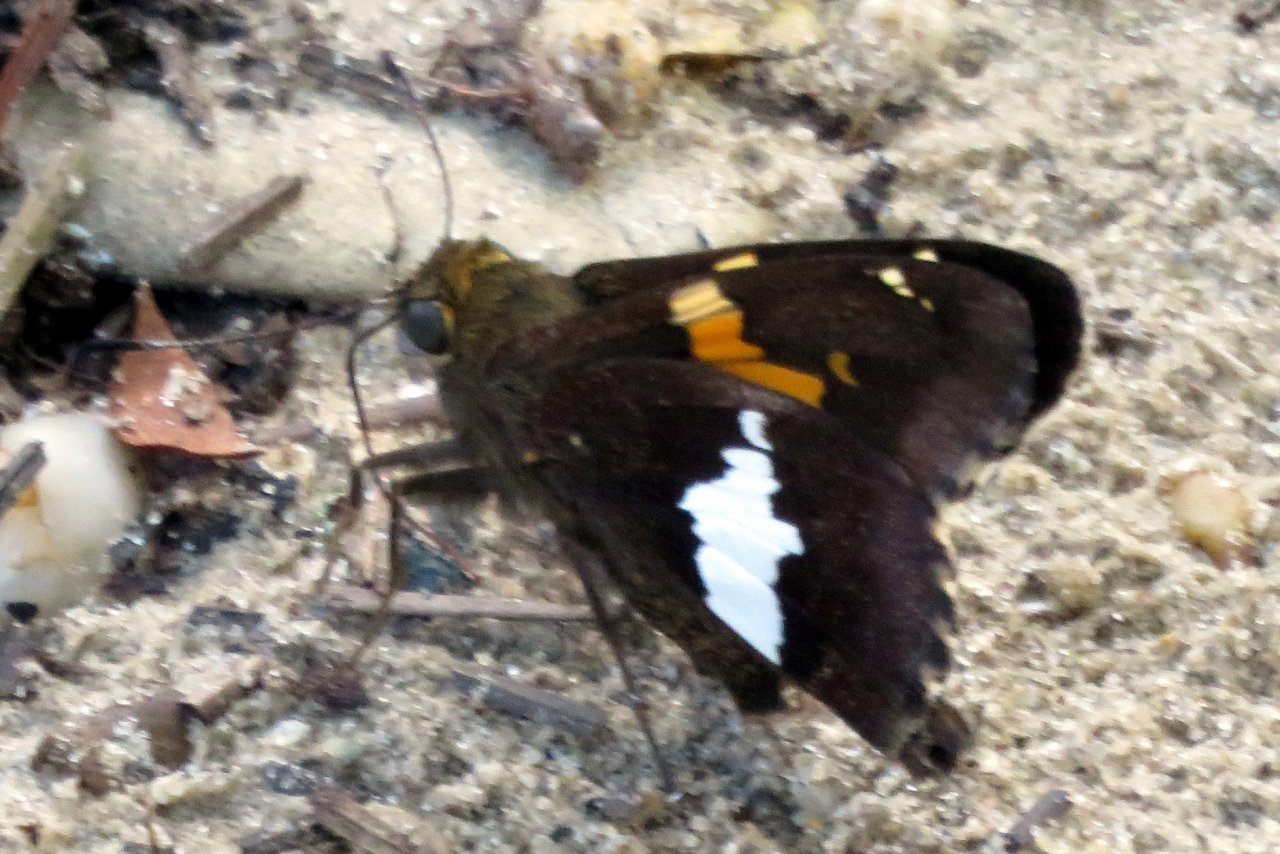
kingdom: Animalia
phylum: Arthropoda
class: Insecta
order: Lepidoptera
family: Hesperiidae
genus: Epargyreus
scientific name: Epargyreus clarus
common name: Silver-spotted Skipper
